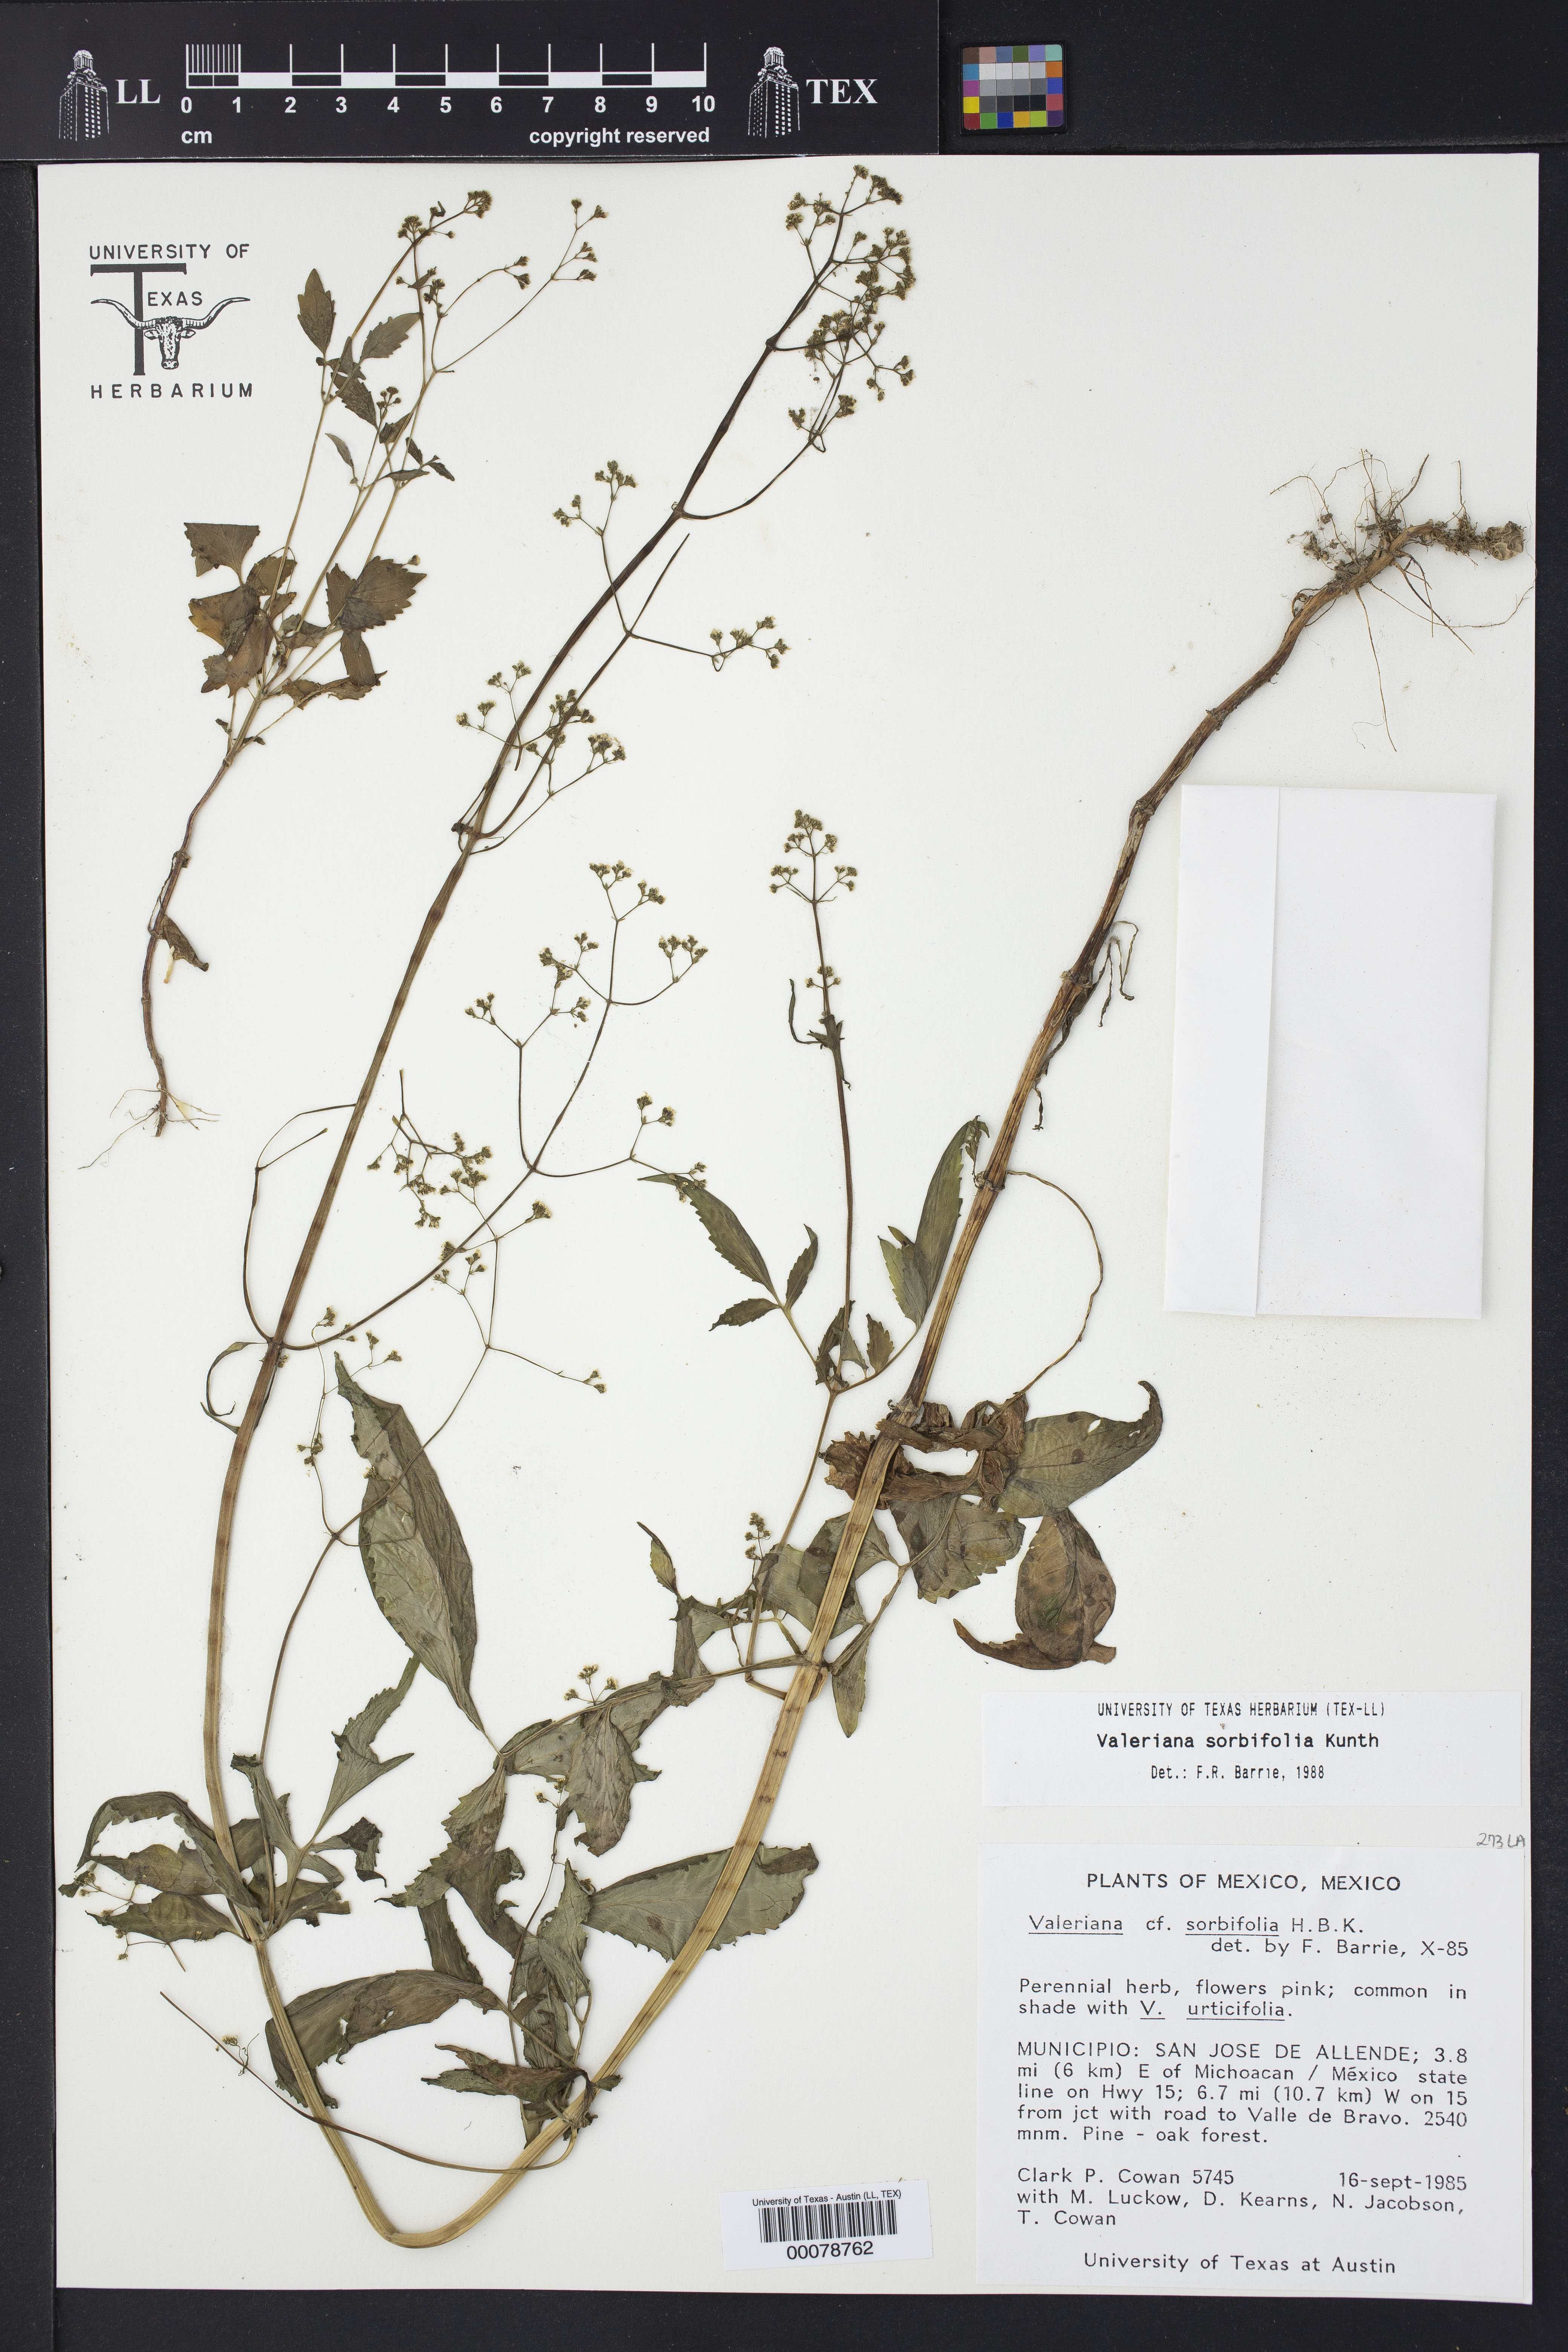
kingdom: Plantae
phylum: Tracheophyta
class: Magnoliopsida
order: Dipsacales
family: Caprifoliaceae
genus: Valeriana
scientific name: Valeriana sorbifolia
